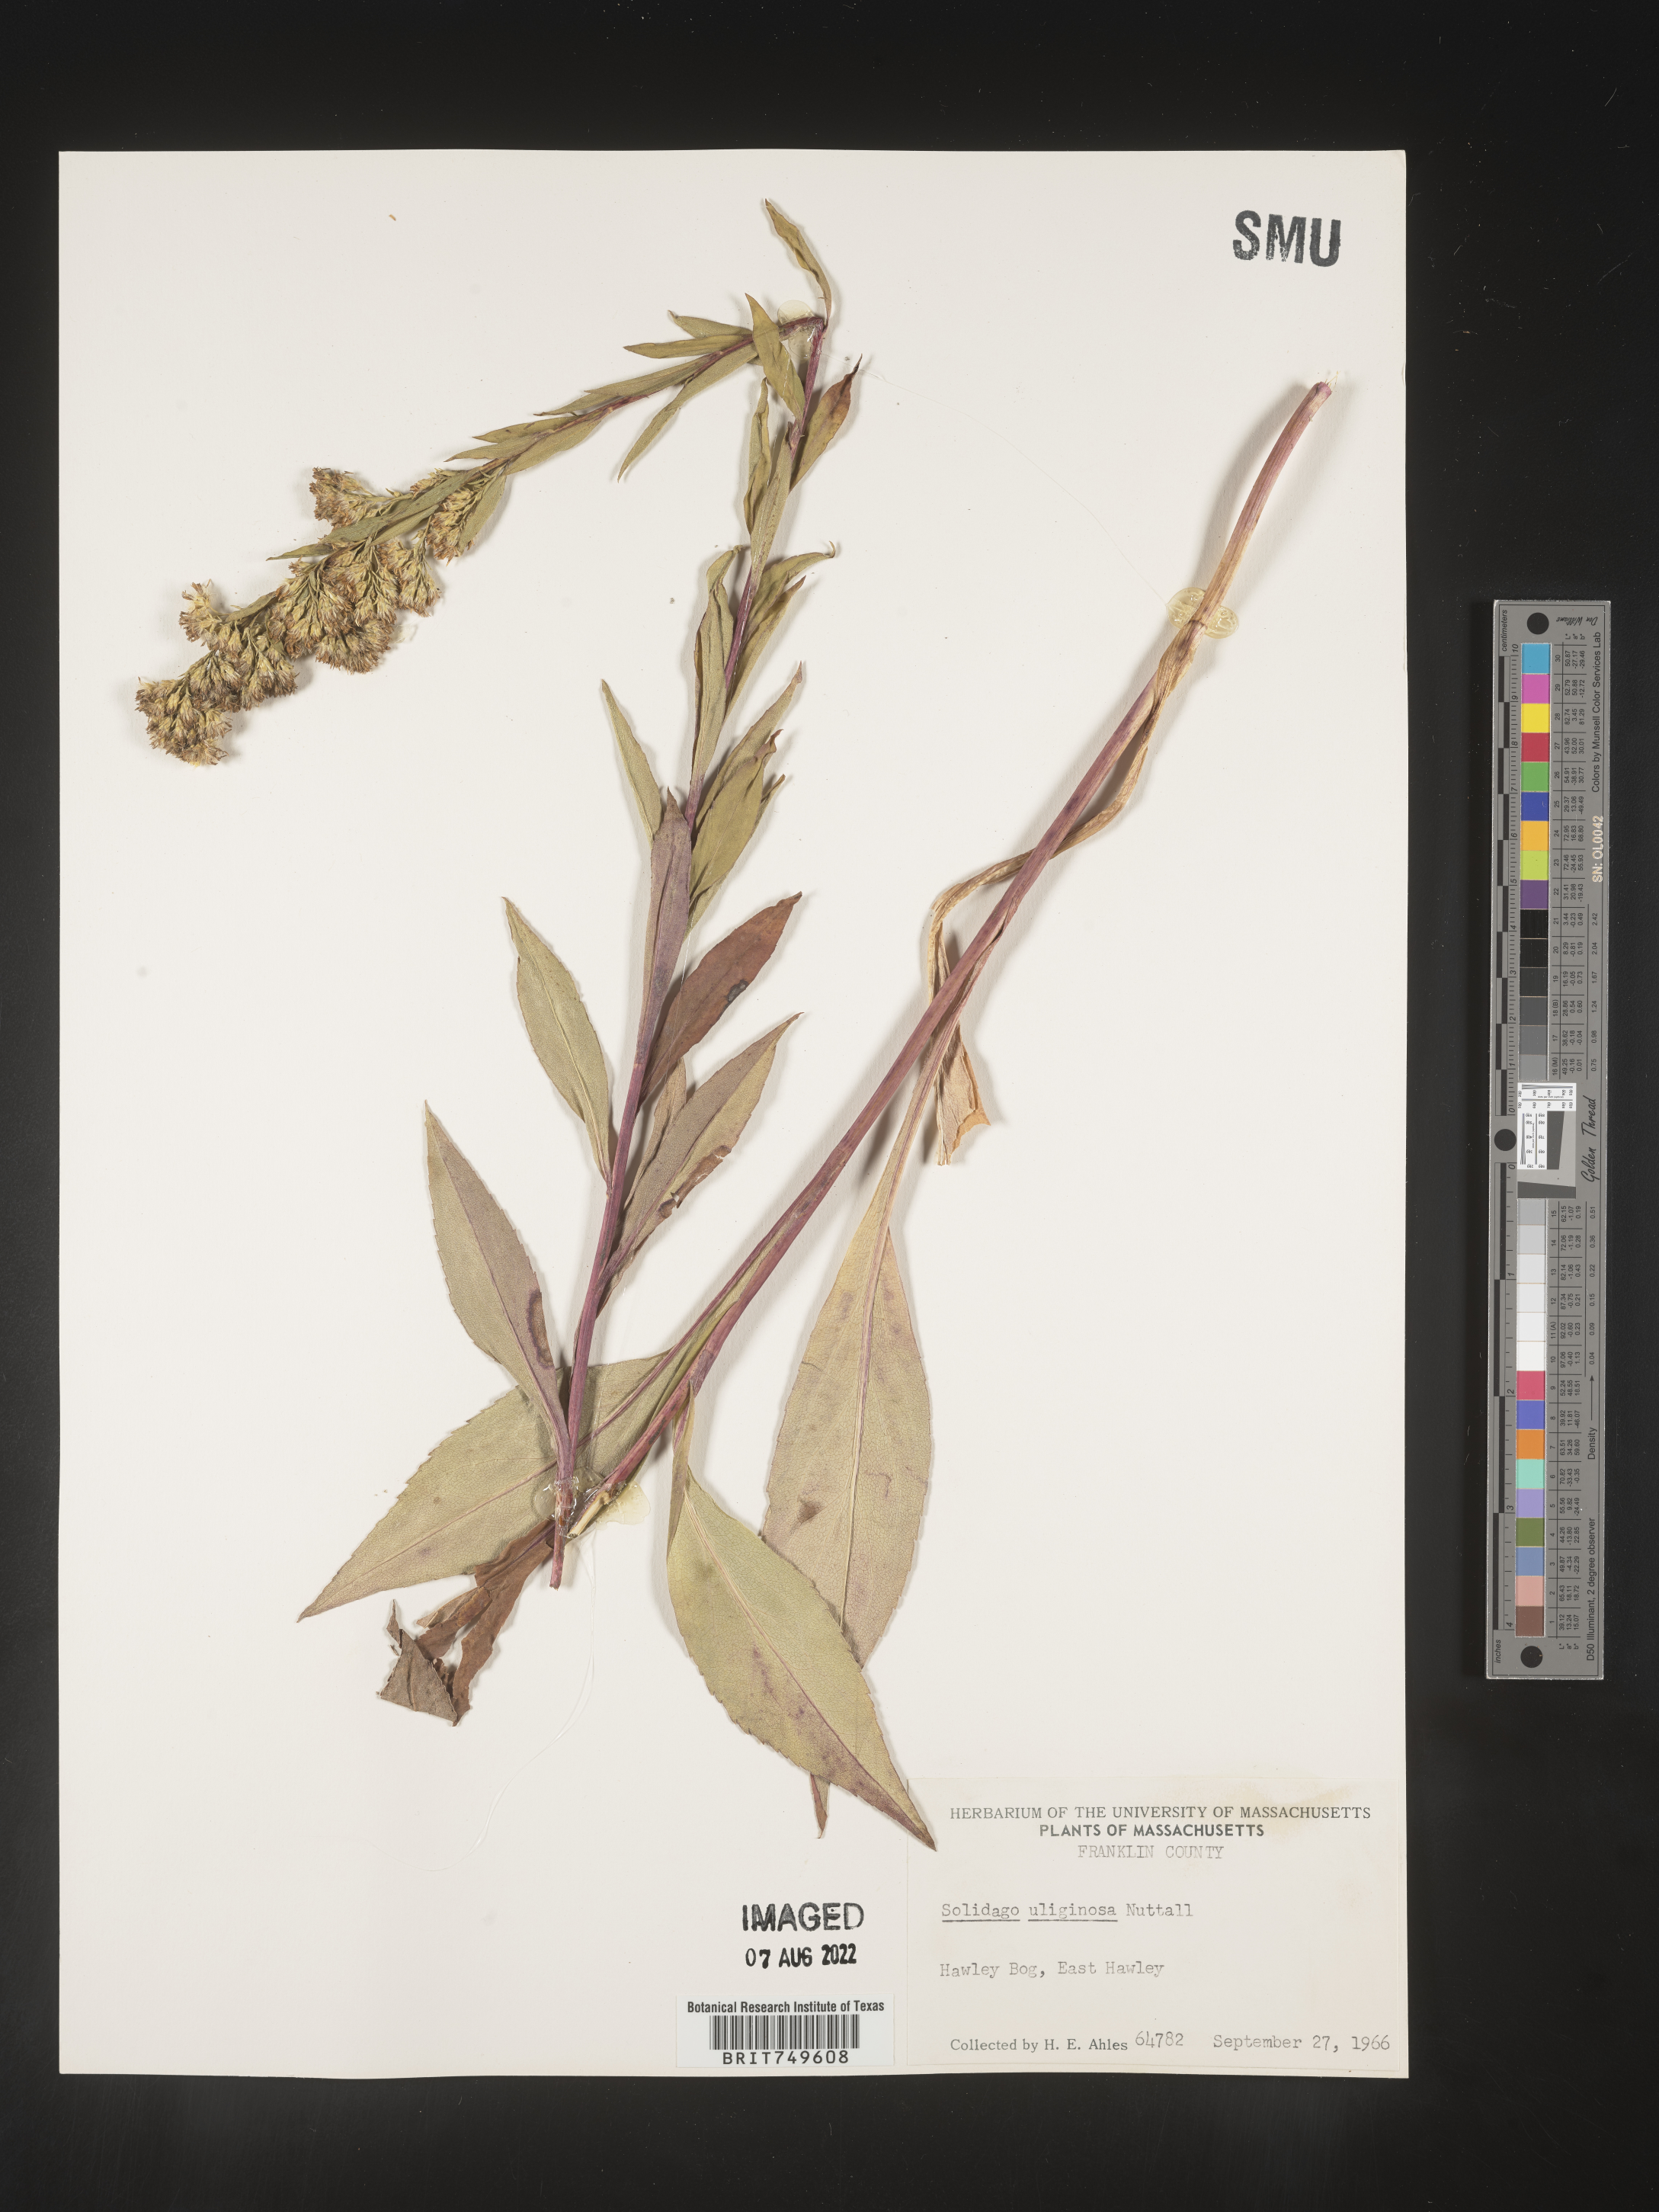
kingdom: Plantae
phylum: Tracheophyta
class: Magnoliopsida
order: Asterales
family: Asteraceae
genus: Solidago
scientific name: Solidago uliginosa
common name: Bog goldenrod
